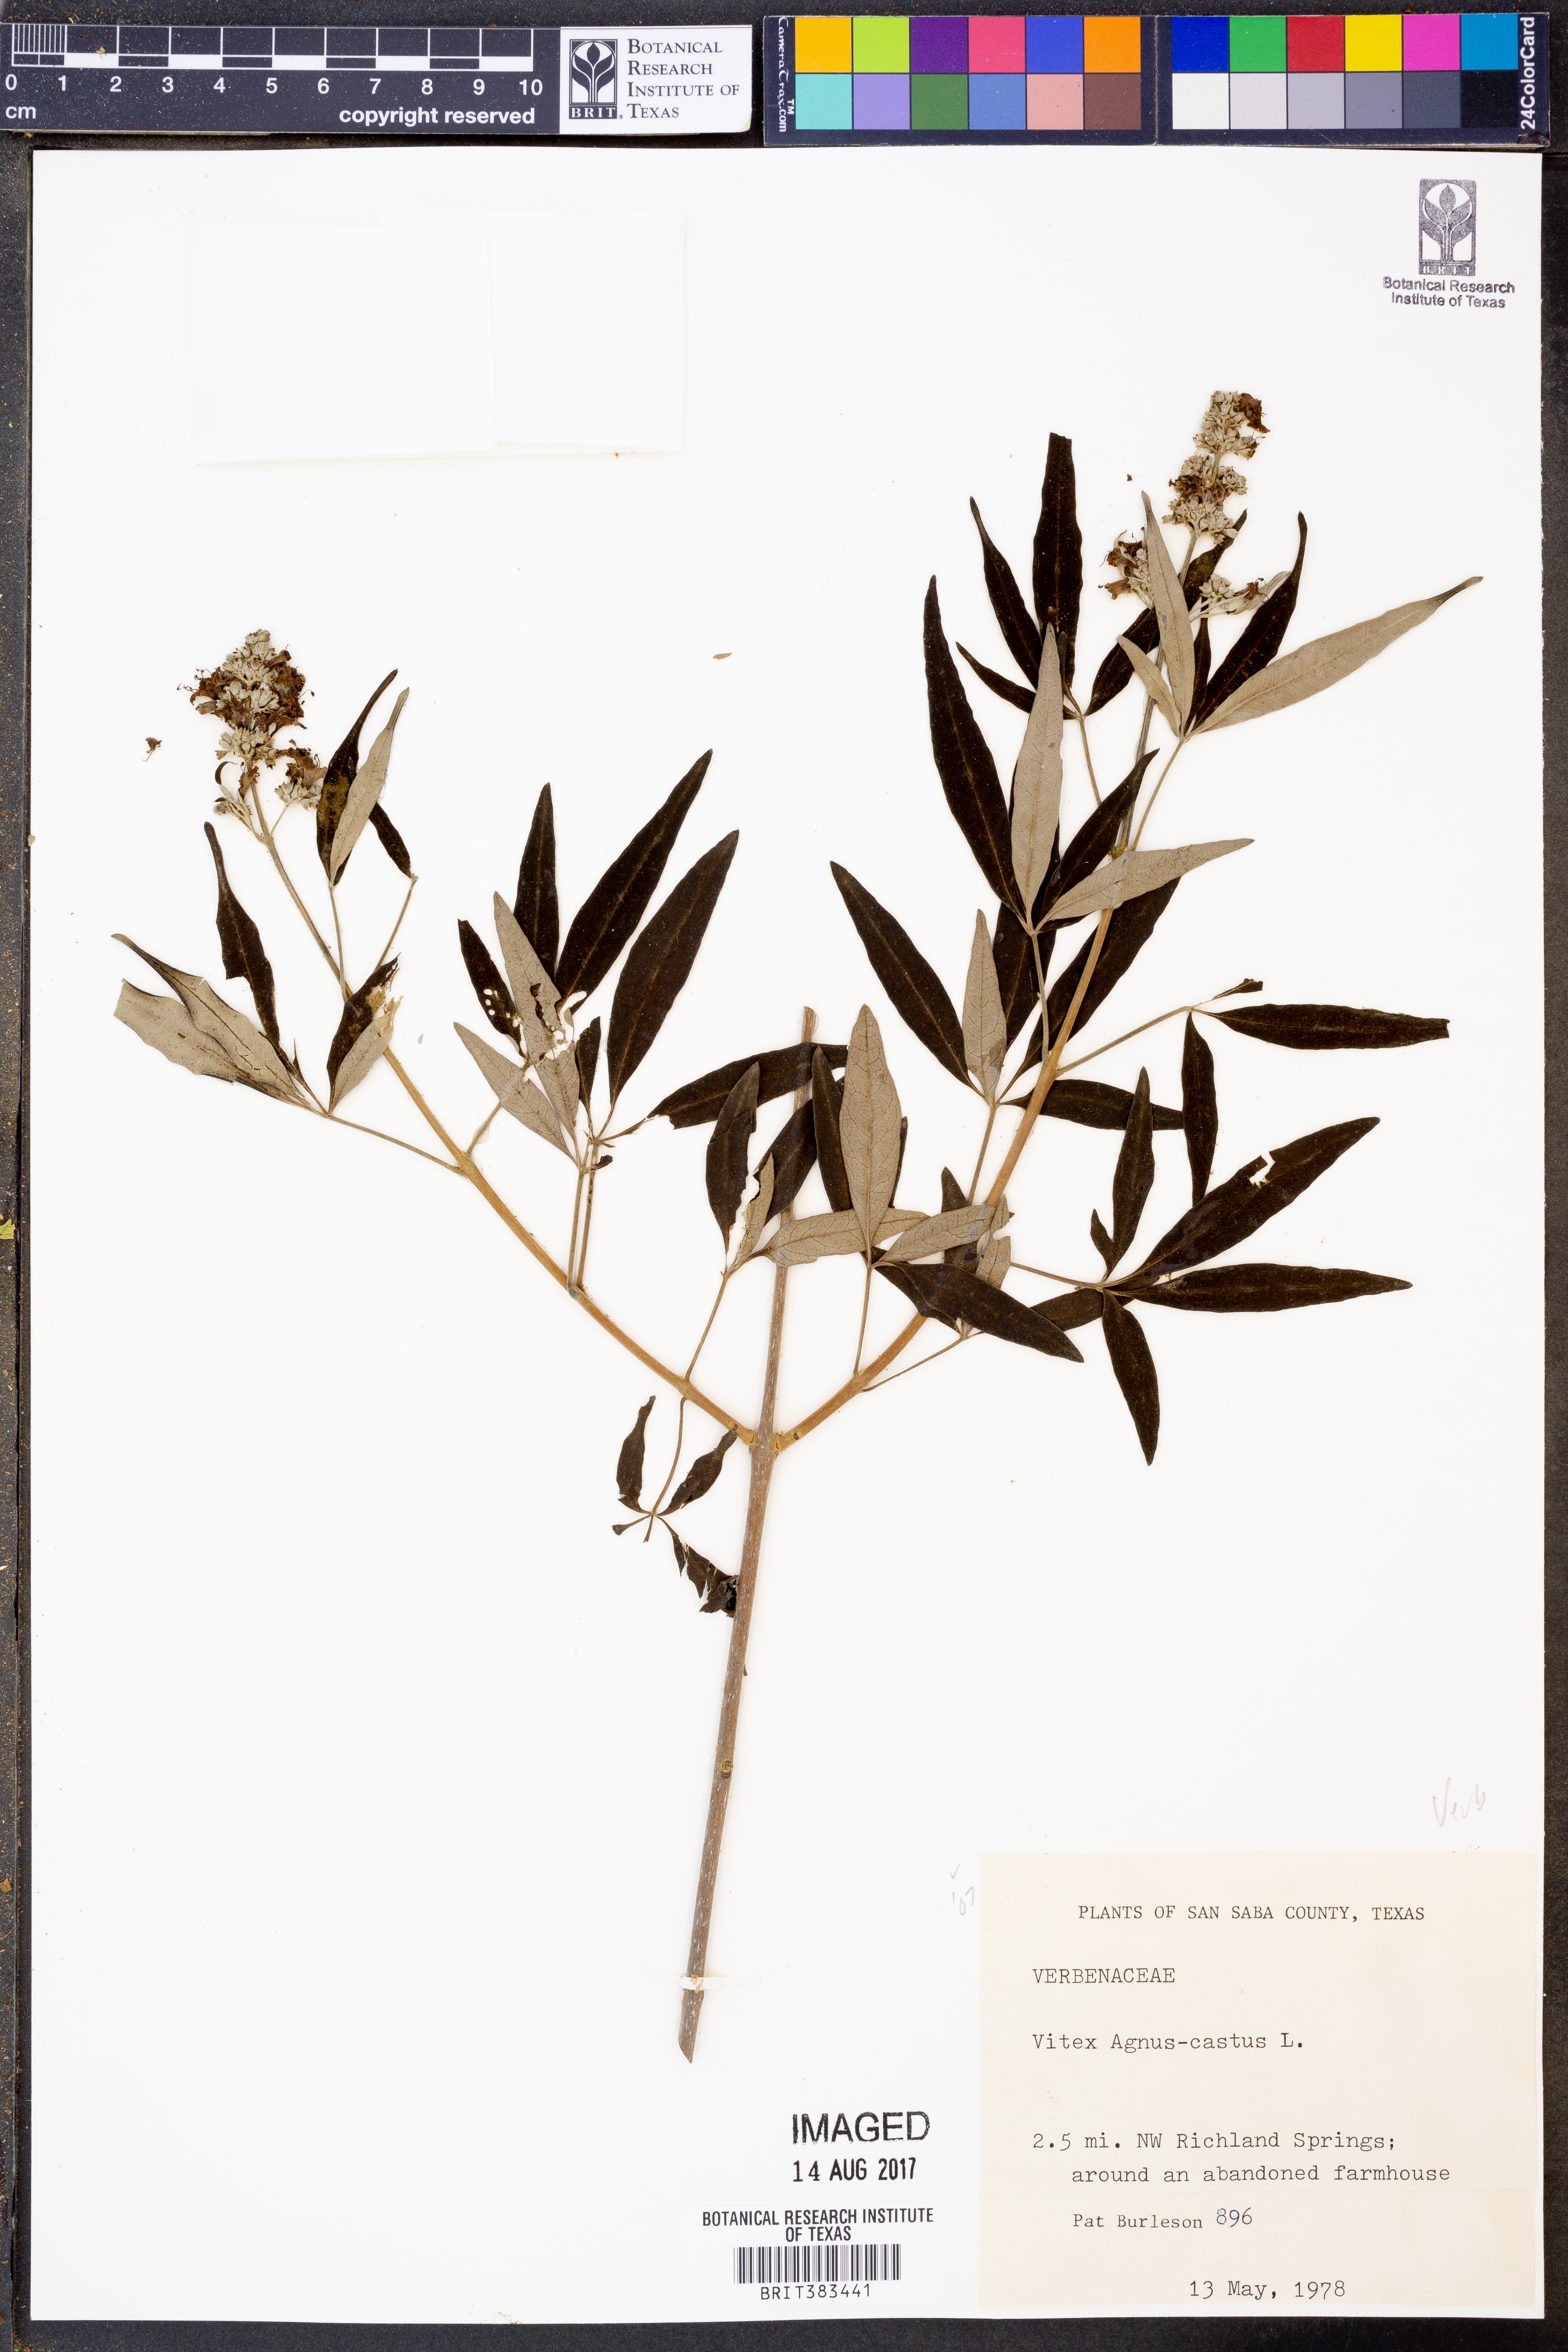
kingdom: Plantae
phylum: Tracheophyta
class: Magnoliopsida
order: Lamiales
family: Lamiaceae
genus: Vitex
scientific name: Vitex agnus-castus
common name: Chasteberry
